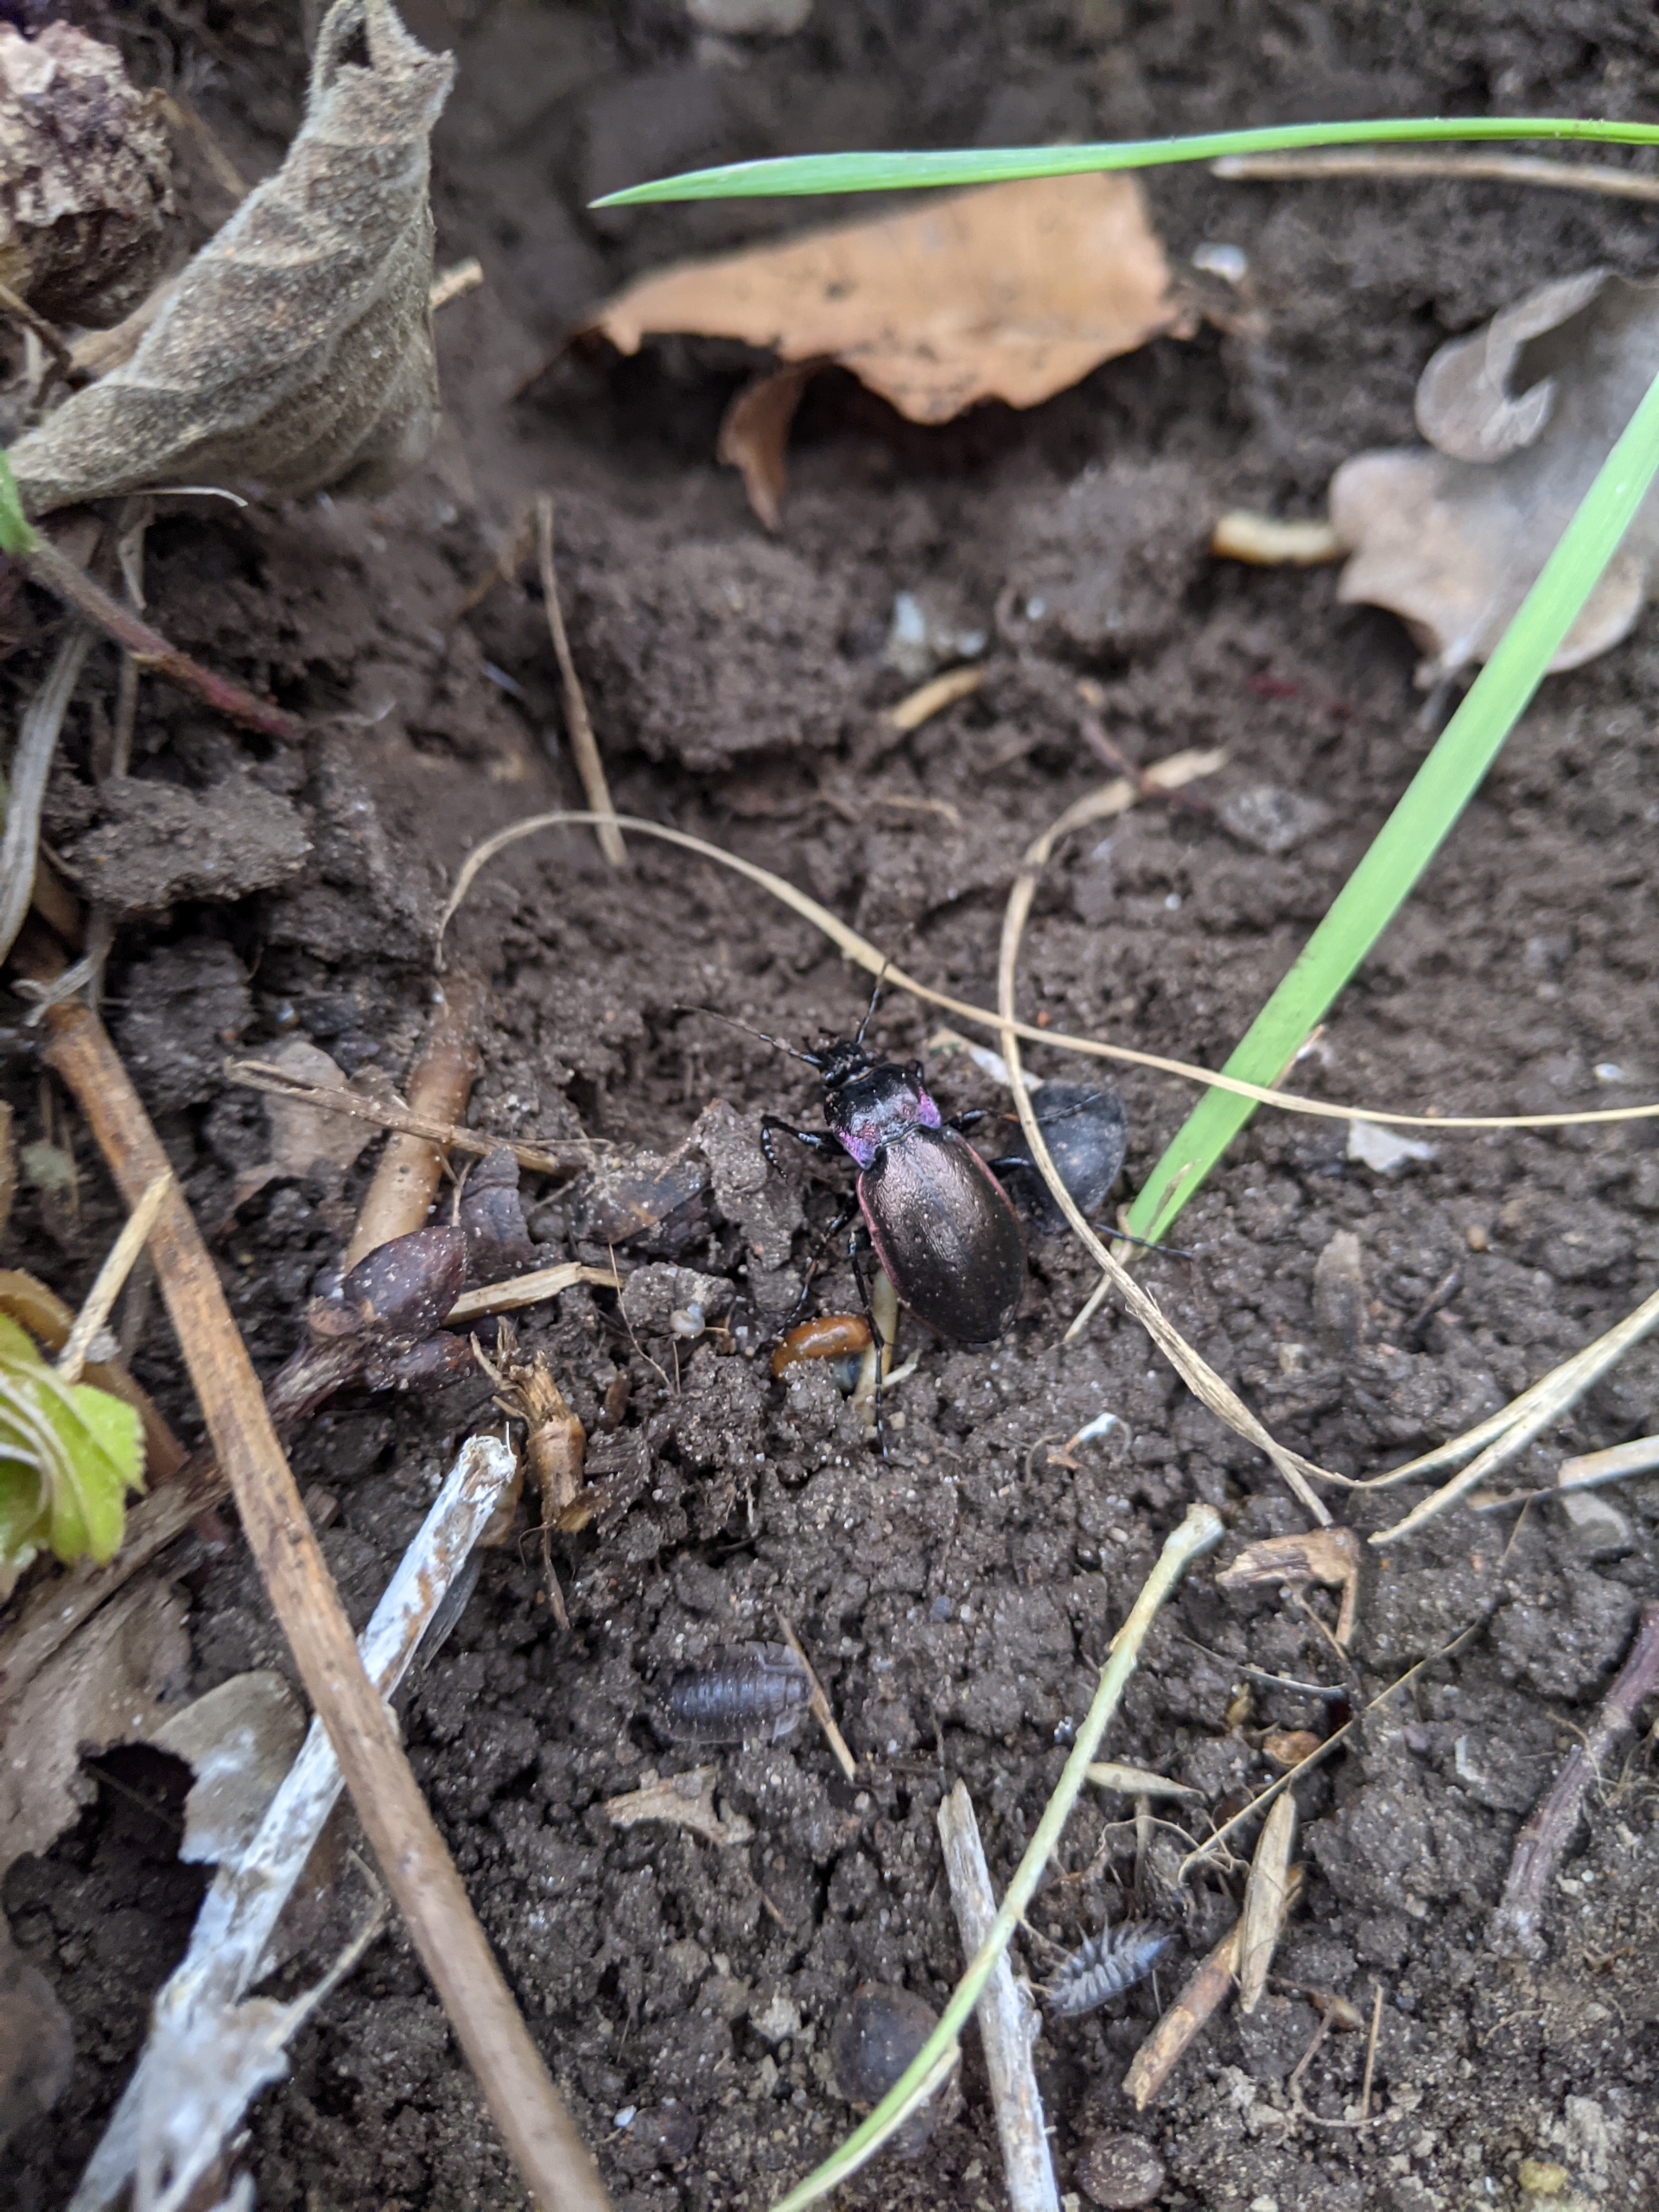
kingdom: Animalia
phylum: Arthropoda
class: Insecta
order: Coleoptera
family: Carabidae
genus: Carabus
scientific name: Carabus nemoralis
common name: Kratløber
